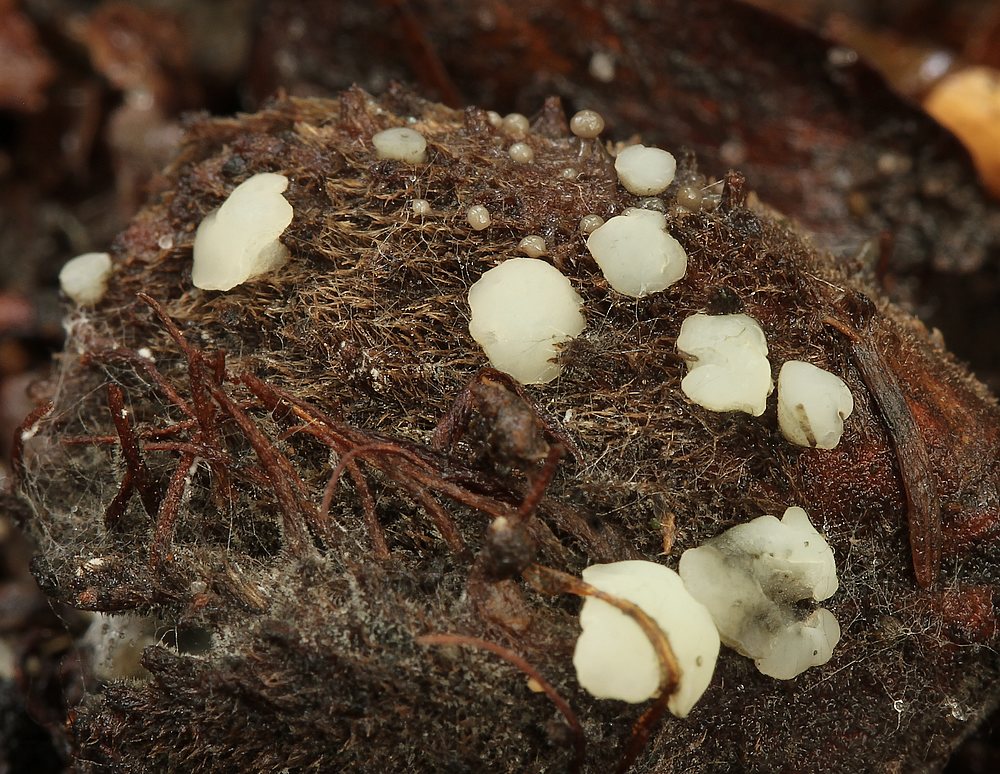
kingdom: Fungi
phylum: Ascomycota
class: Leotiomycetes
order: Helotiales
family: Helotiaceae
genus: Hymenoscyphus
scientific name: Hymenoscyphus imberbis
